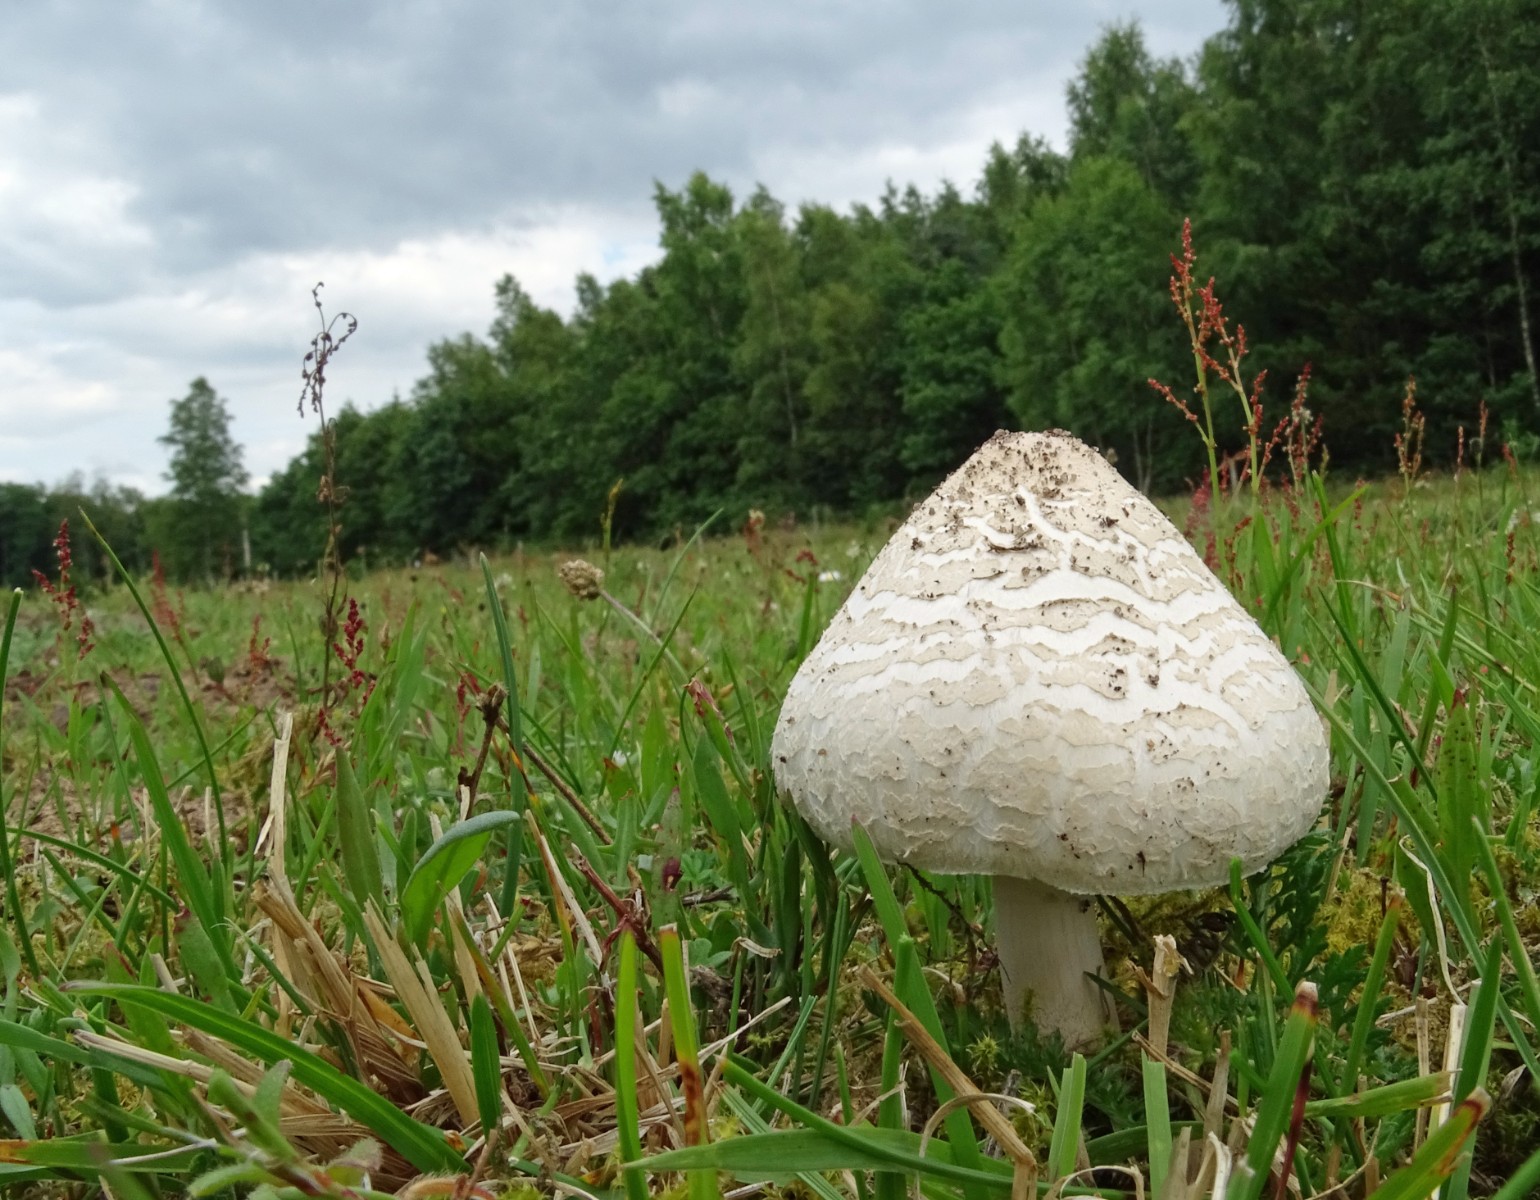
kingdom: Fungi
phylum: Basidiomycota
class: Agaricomycetes
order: Agaricales
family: Agaricaceae
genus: Macrolepiota
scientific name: Macrolepiota excoriata
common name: mark-kæmpeparasolhat
